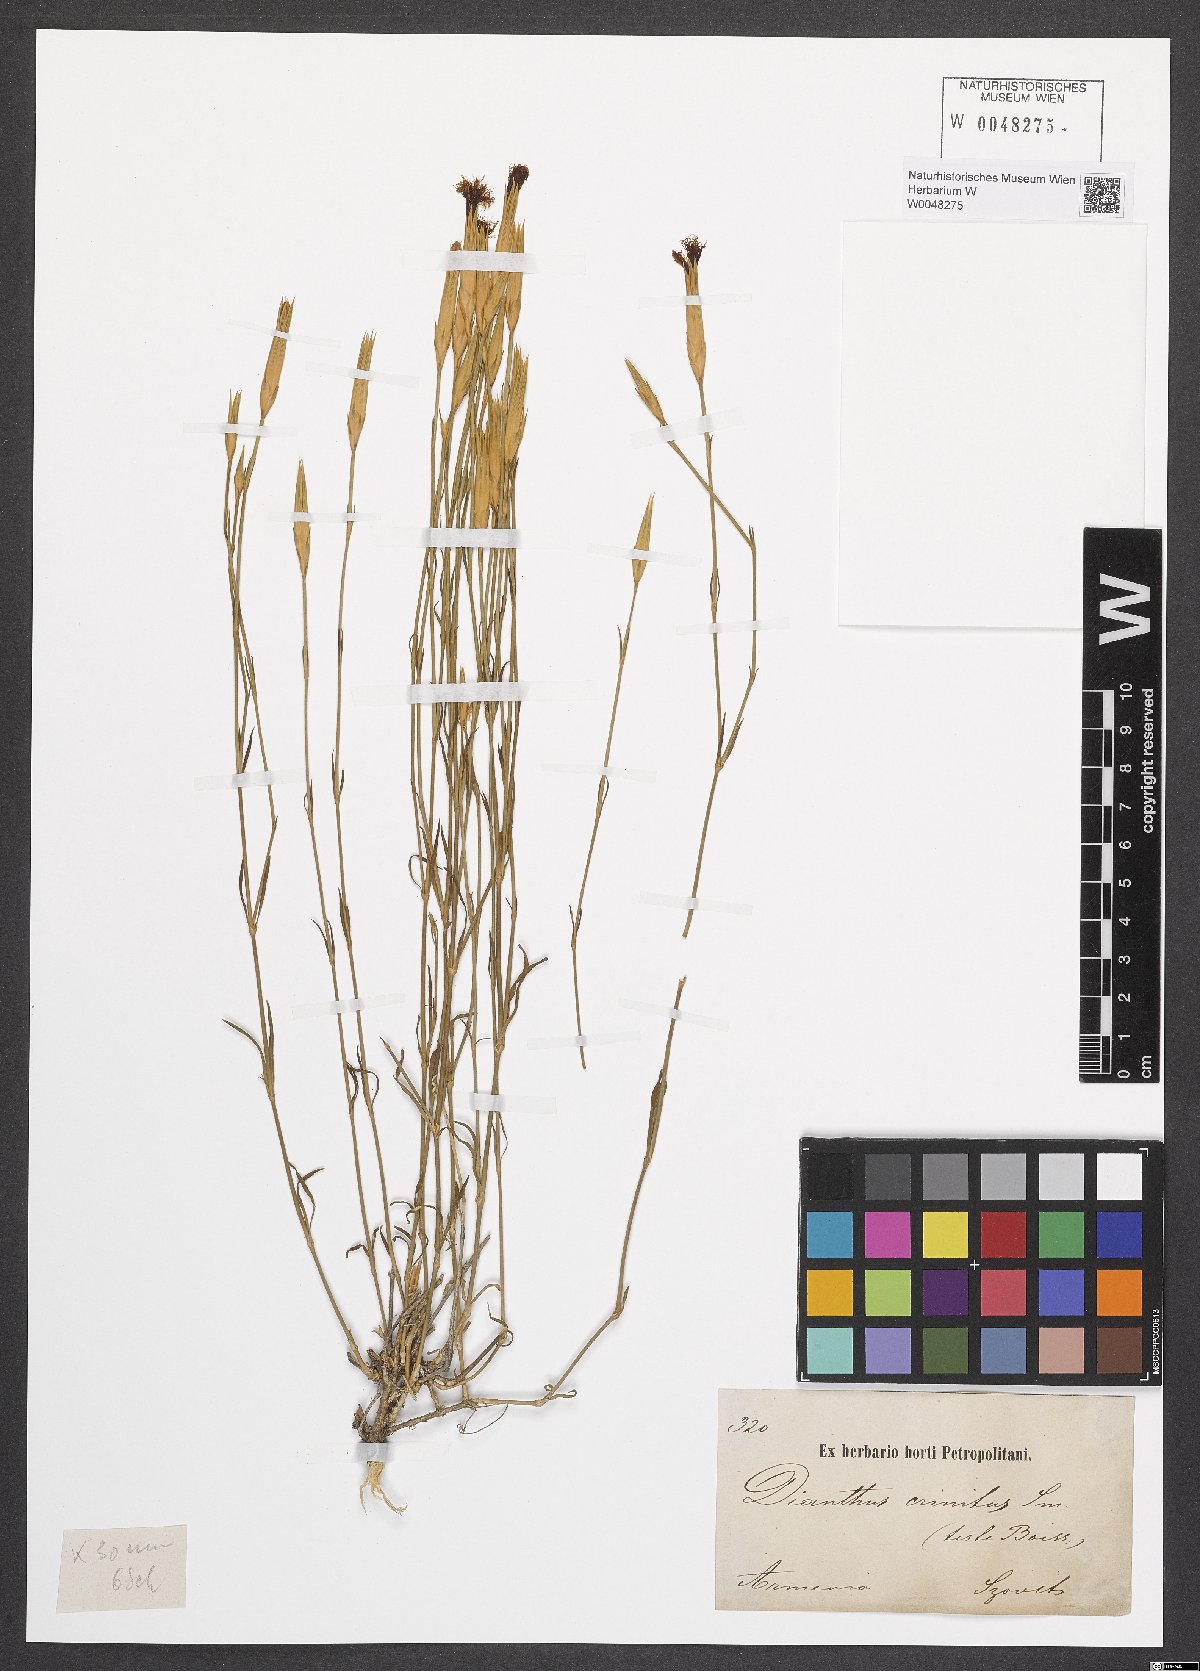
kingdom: Plantae
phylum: Tracheophyta
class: Magnoliopsida
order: Caryophyllales
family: Caryophyllaceae
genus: Dianthus
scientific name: Dianthus crinitus
